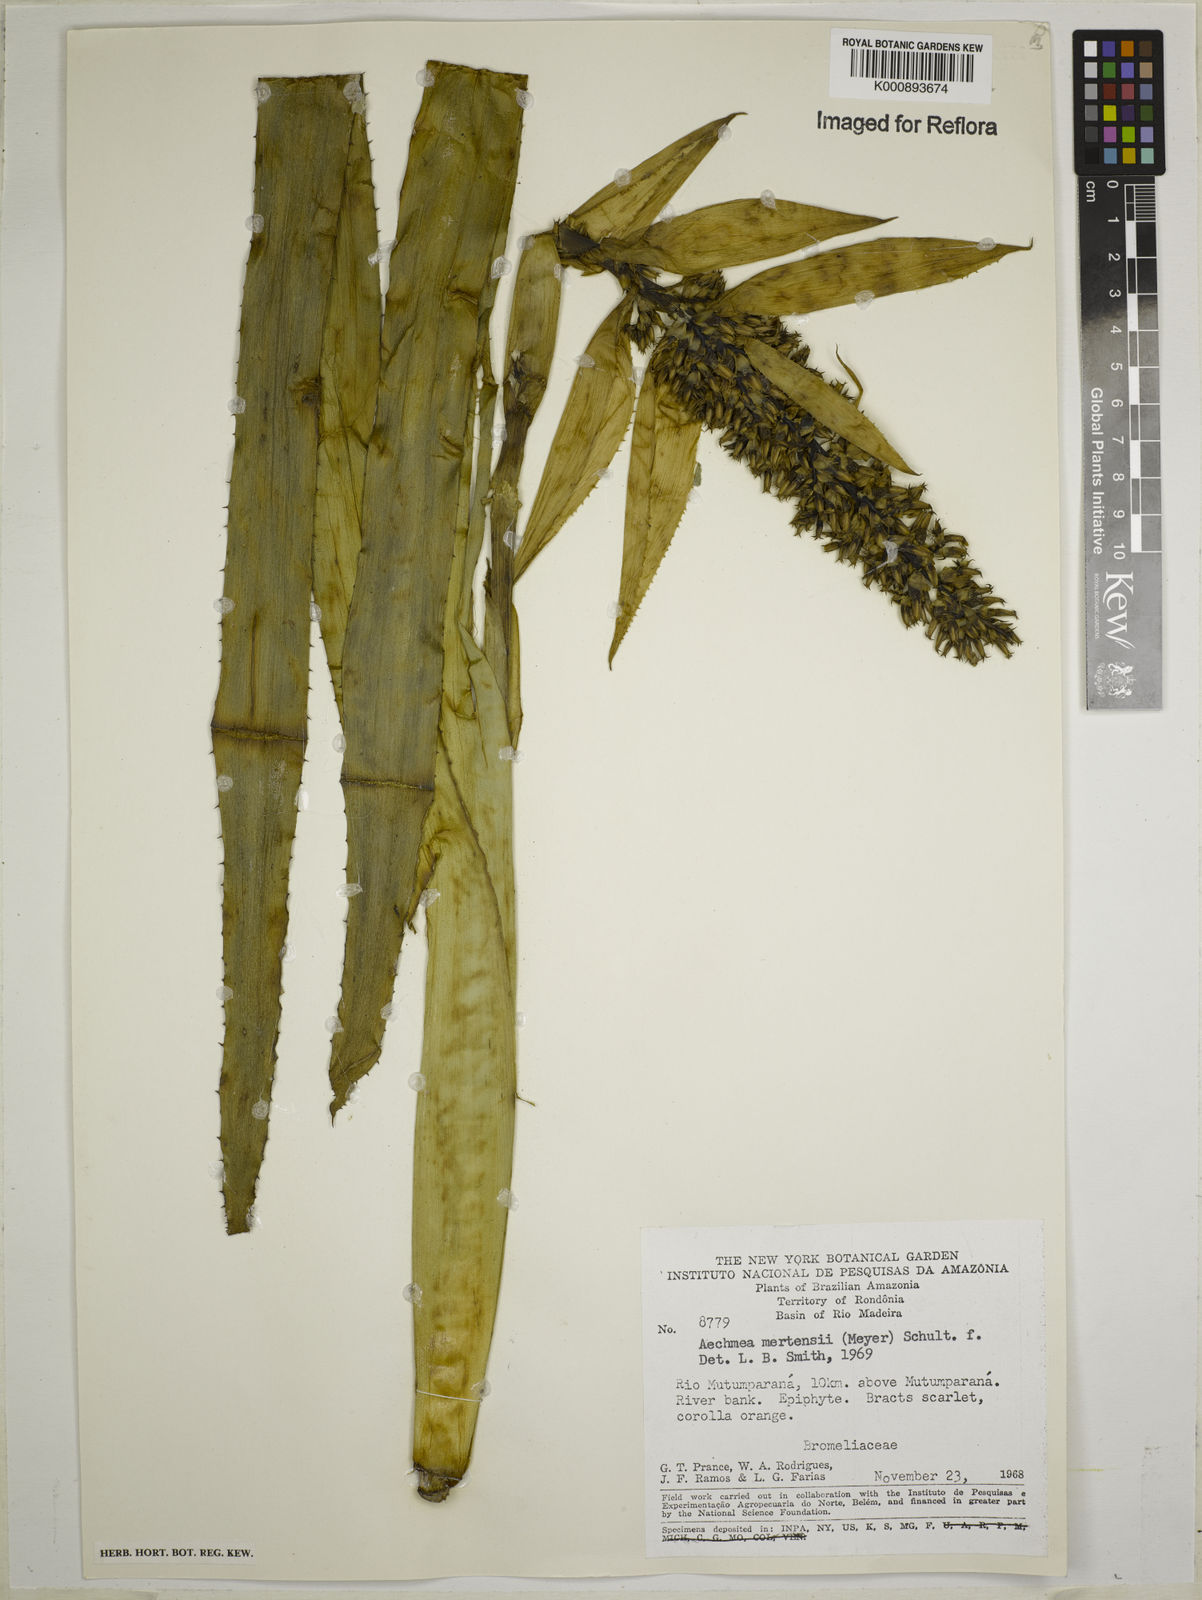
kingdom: Plantae
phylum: Tracheophyta
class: Liliopsida
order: Poales
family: Bromeliaceae
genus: Aechmea
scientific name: Aechmea mertensii
